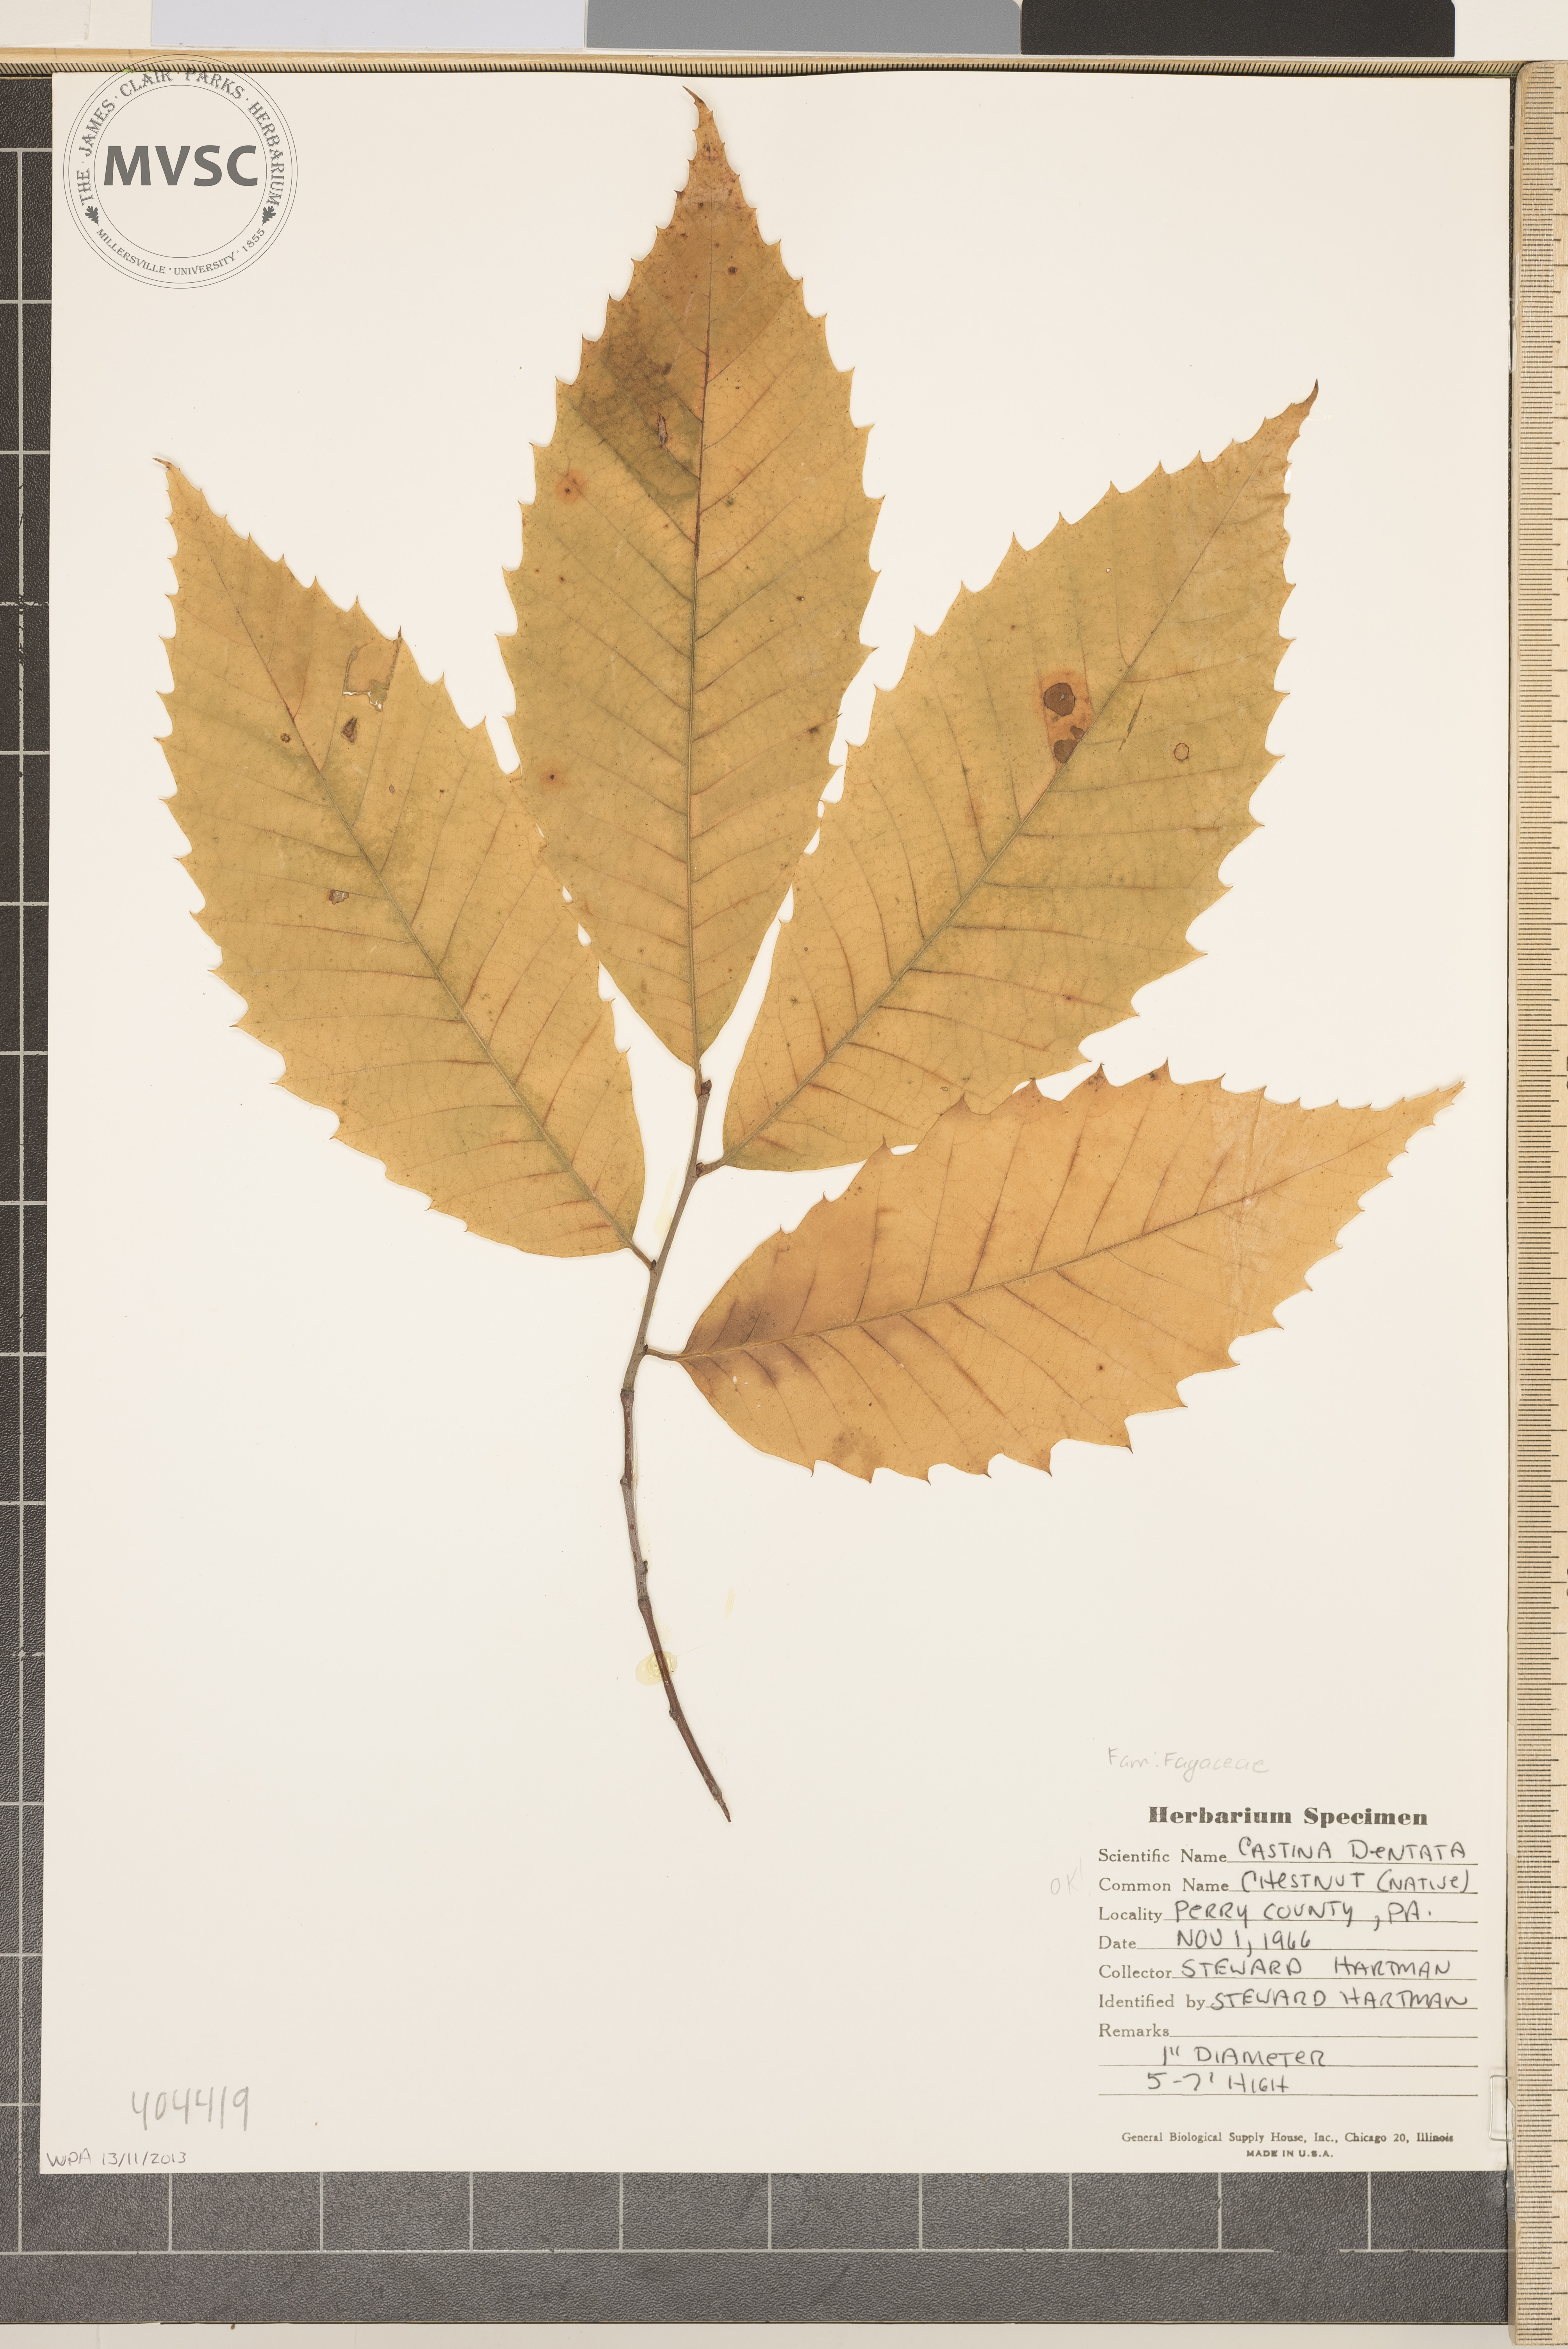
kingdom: Plantae
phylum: Tracheophyta
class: Magnoliopsida
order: Fagales
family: Fagaceae
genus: Castanea
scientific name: Castanea dentata
